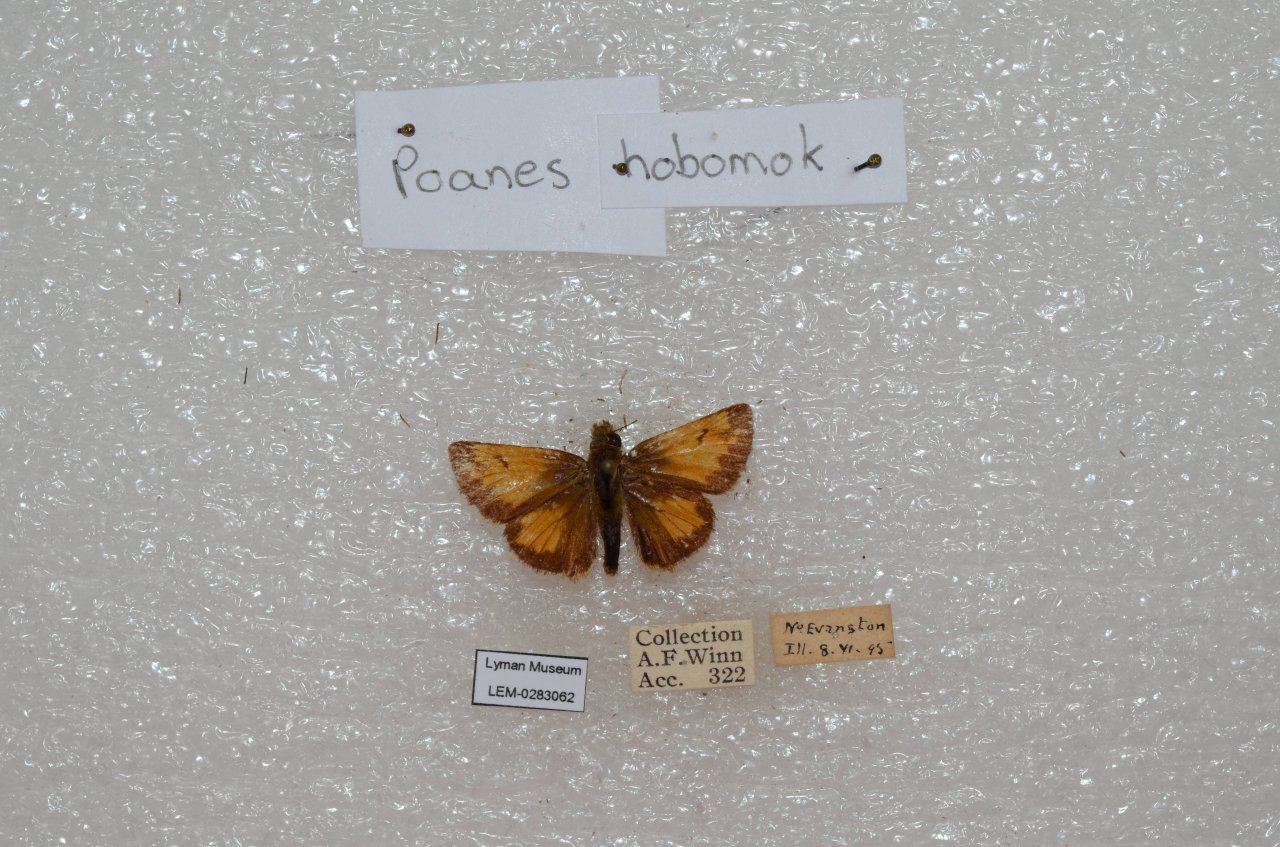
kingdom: Animalia
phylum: Arthropoda
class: Insecta
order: Lepidoptera
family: Hesperiidae
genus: Lon
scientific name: Lon hobomok
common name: Hobomok Skipper
